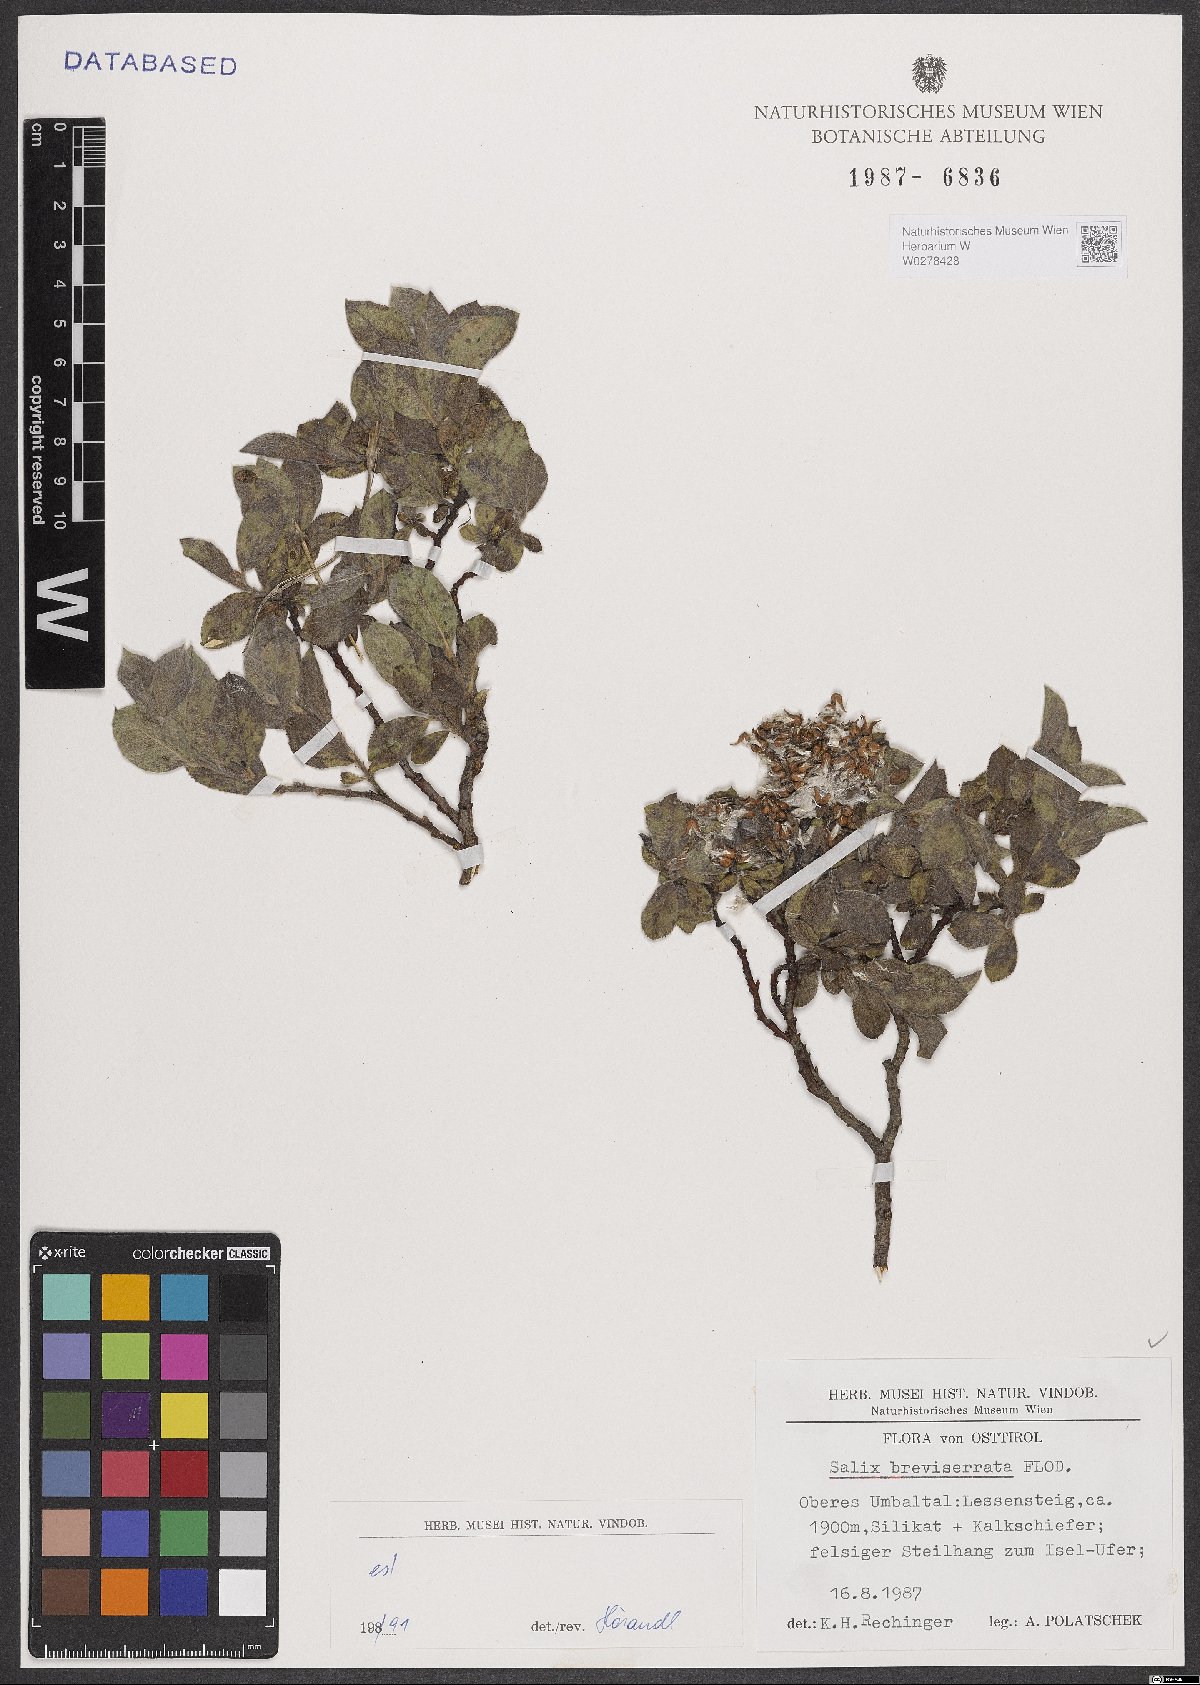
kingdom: Plantae
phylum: Tracheophyta
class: Magnoliopsida
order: Malpighiales
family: Salicaceae
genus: Salix
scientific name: Salix breviserrata
